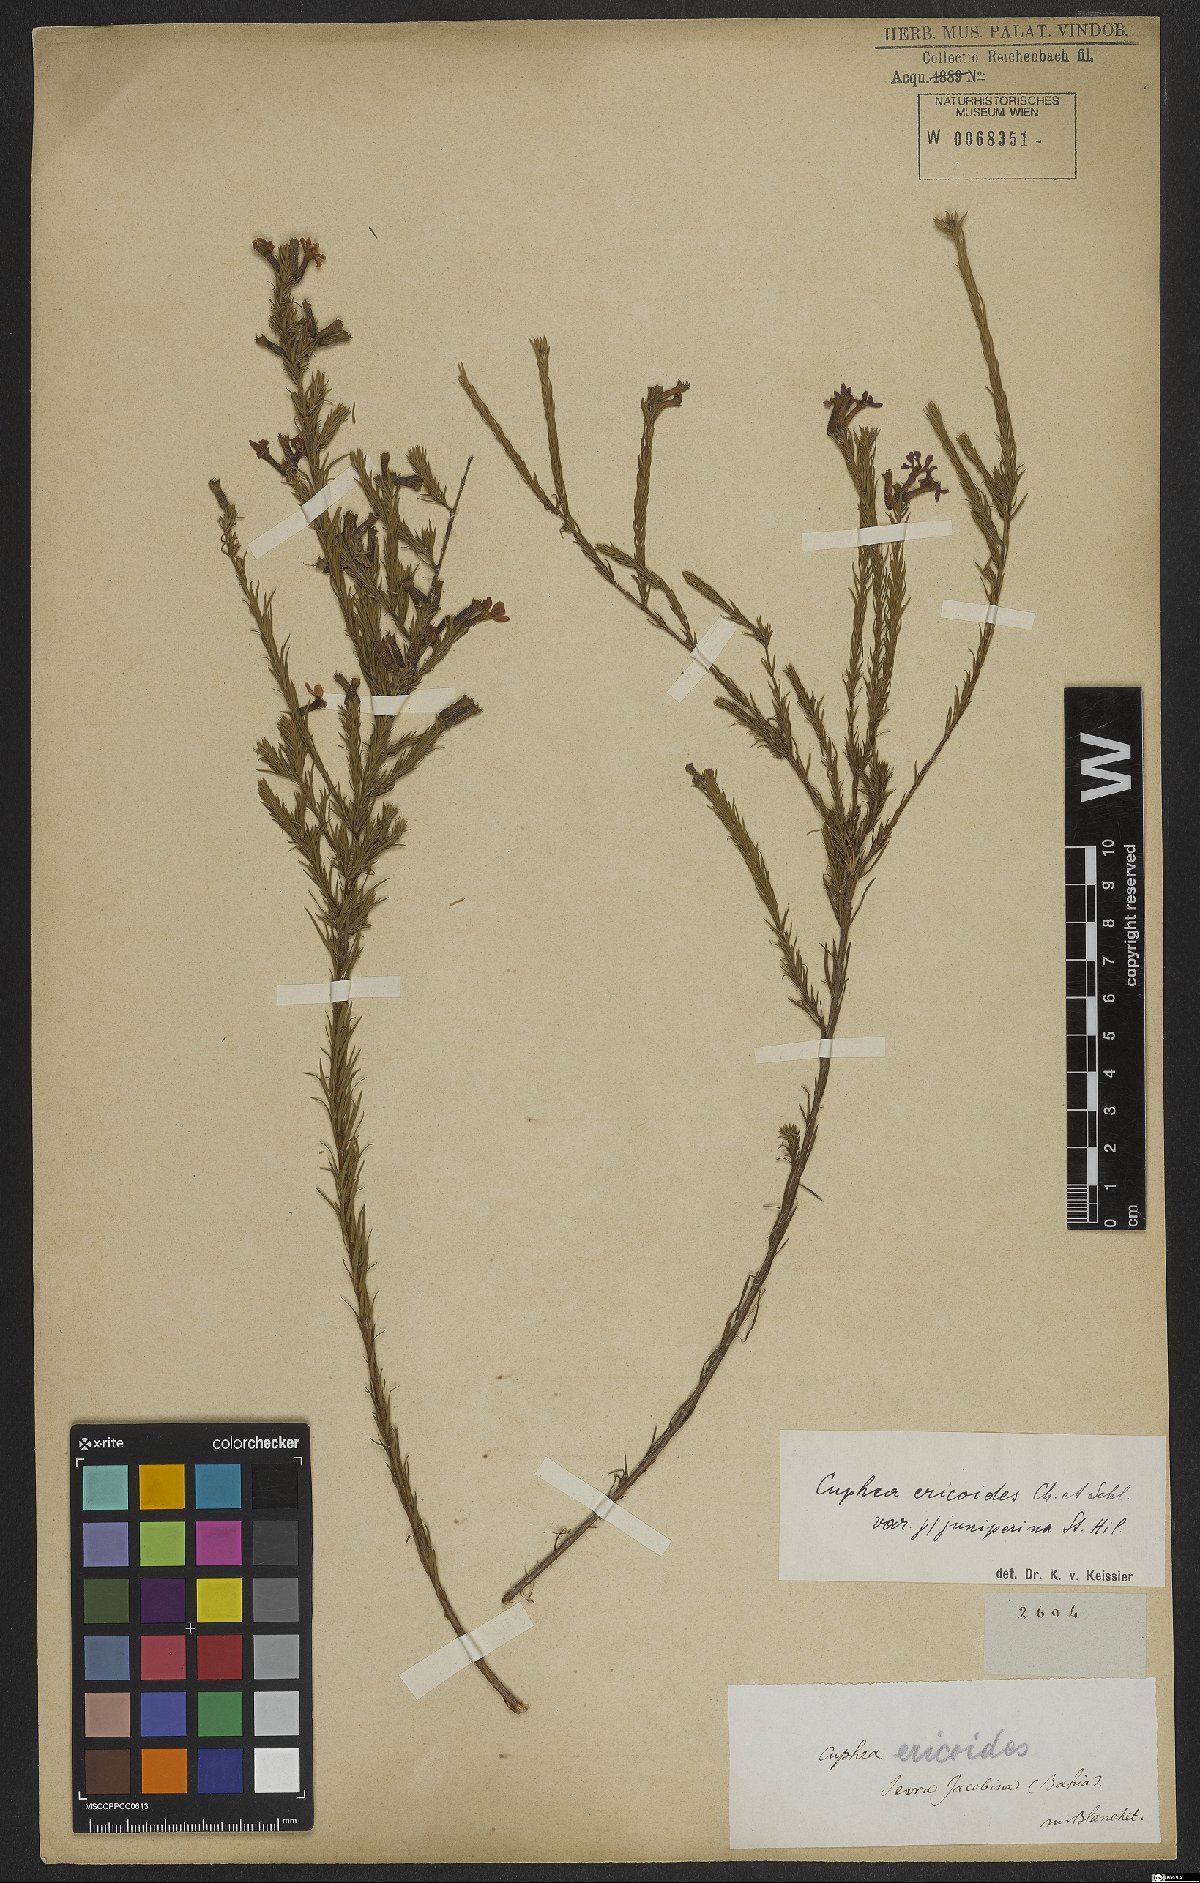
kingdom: Plantae
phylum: Tracheophyta
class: Magnoliopsida
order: Myrtales
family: Lythraceae
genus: Cuphea
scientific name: Cuphea ericoides
